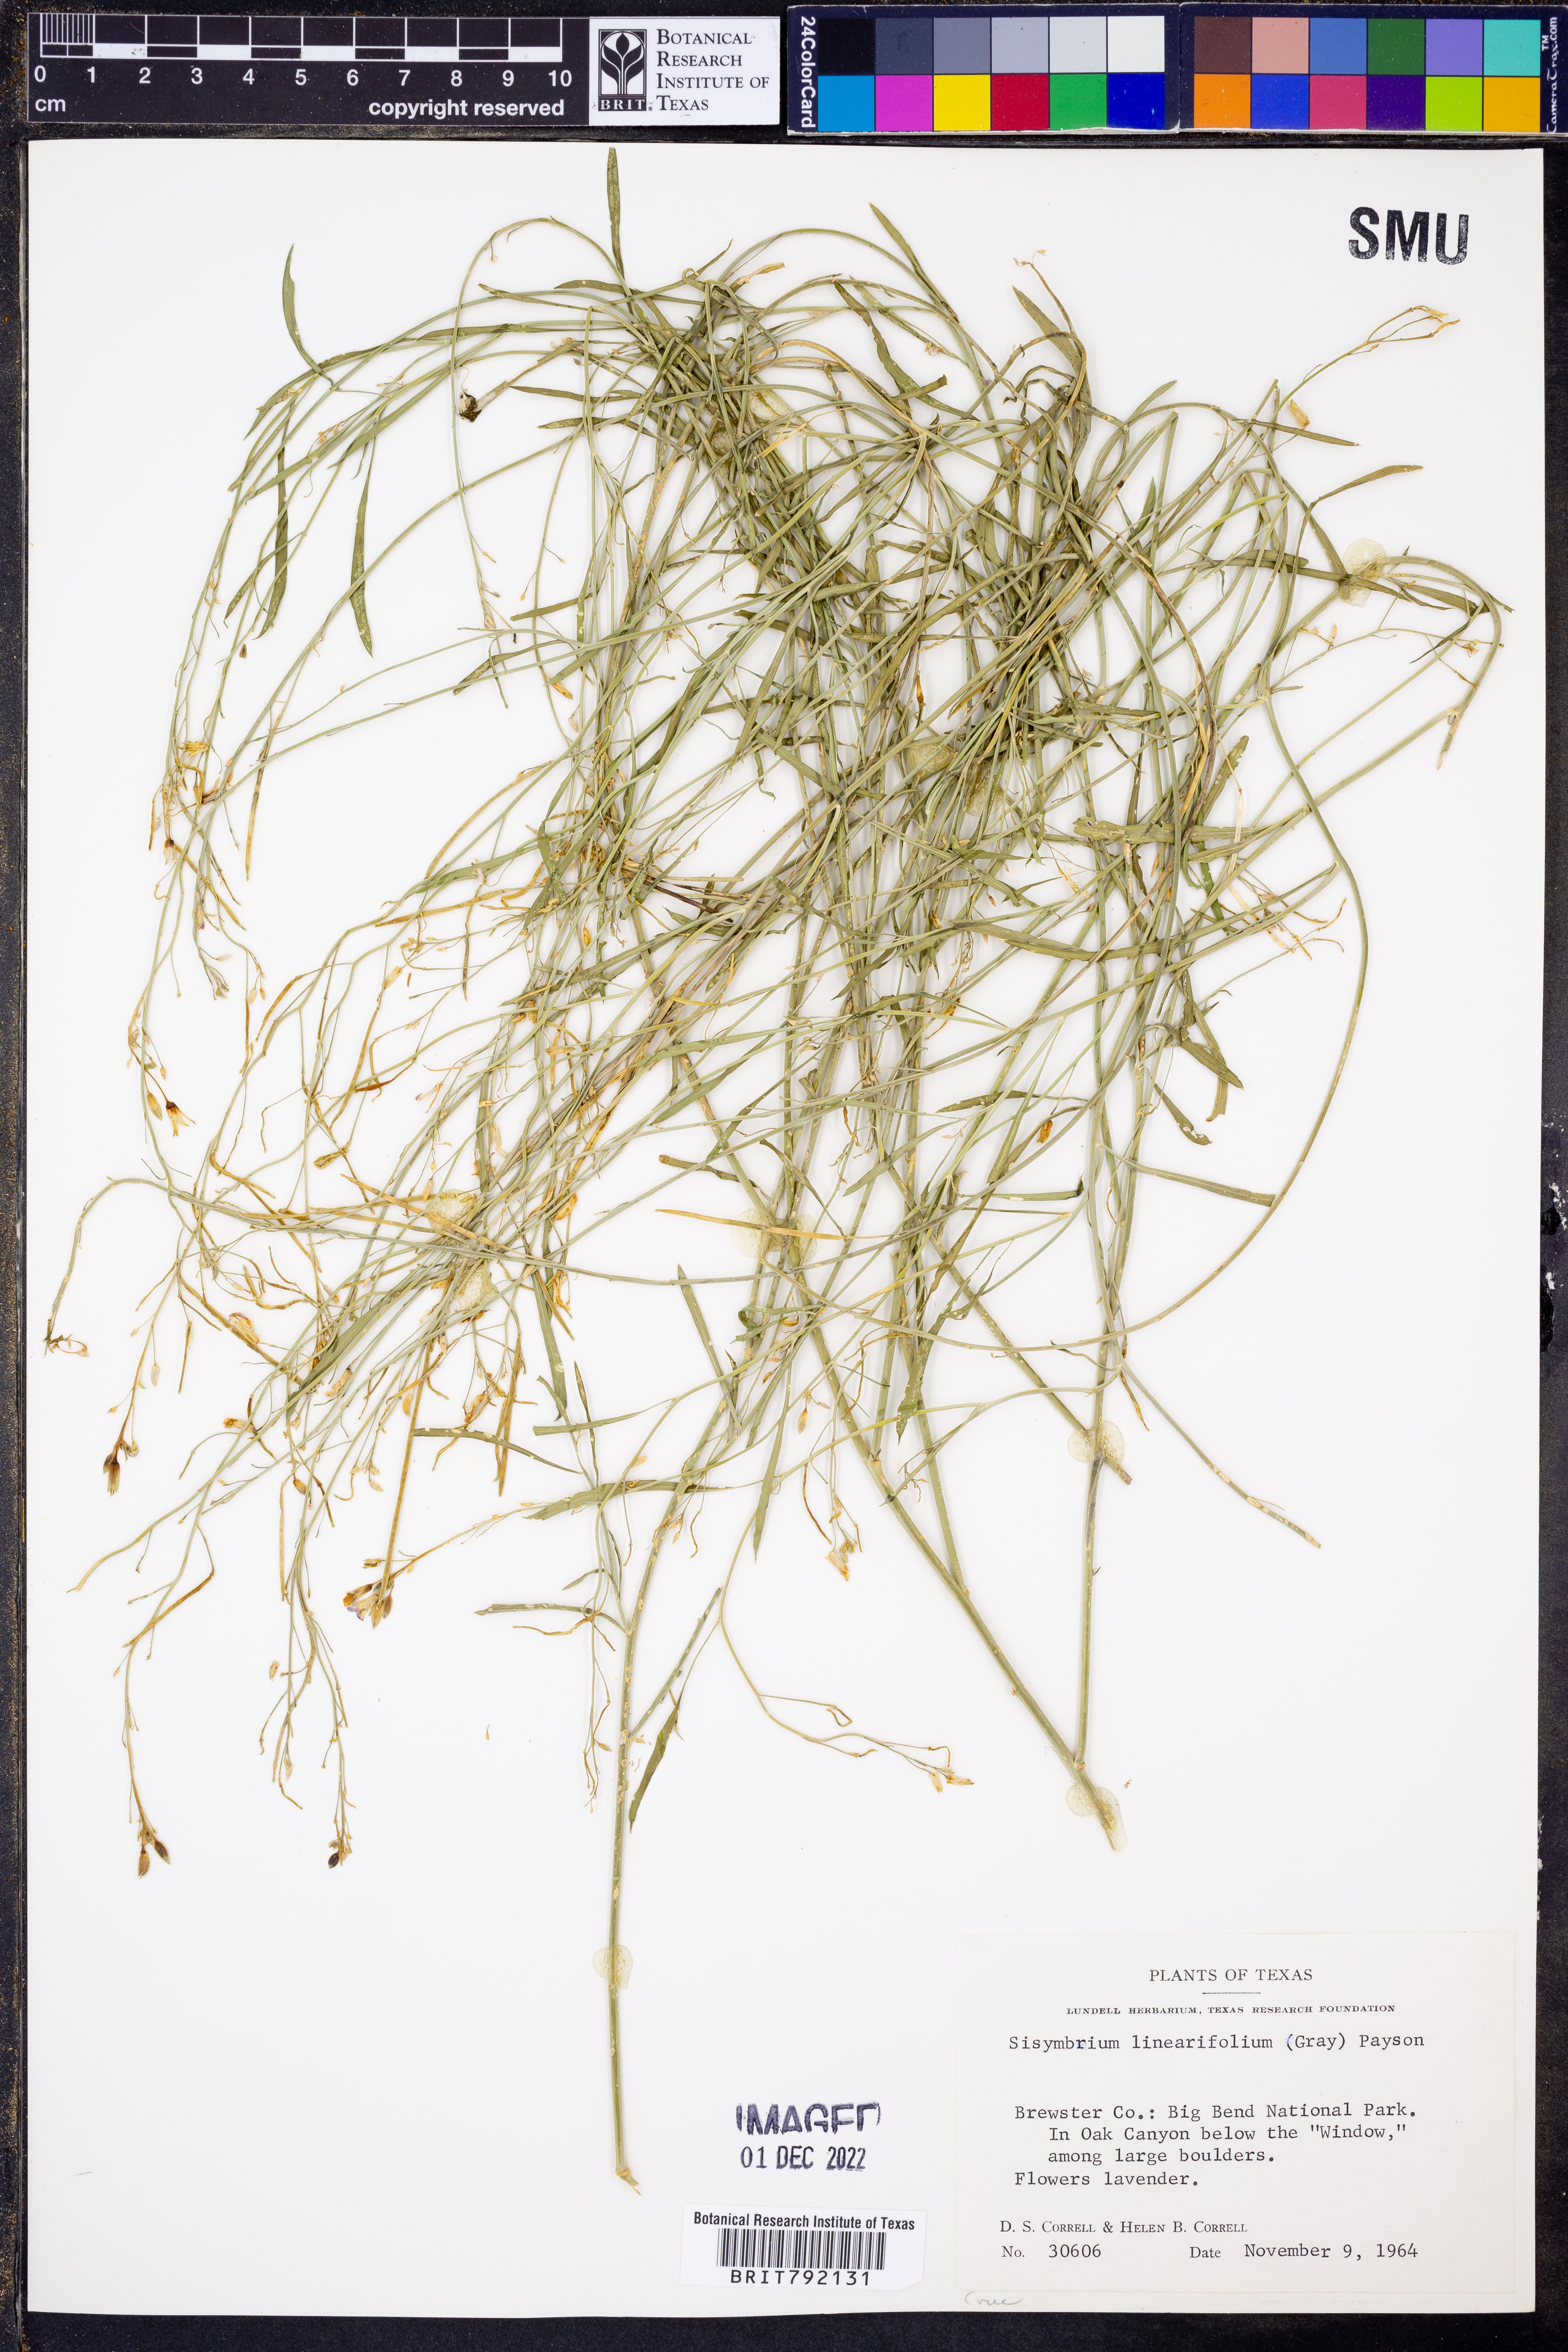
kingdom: Plantae
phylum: Tracheophyta
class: Magnoliopsida
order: Brassicales
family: Brassicaceae
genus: Hesperidanthus
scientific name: Hesperidanthus linearifolius
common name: Slim-leaf plains mustard
